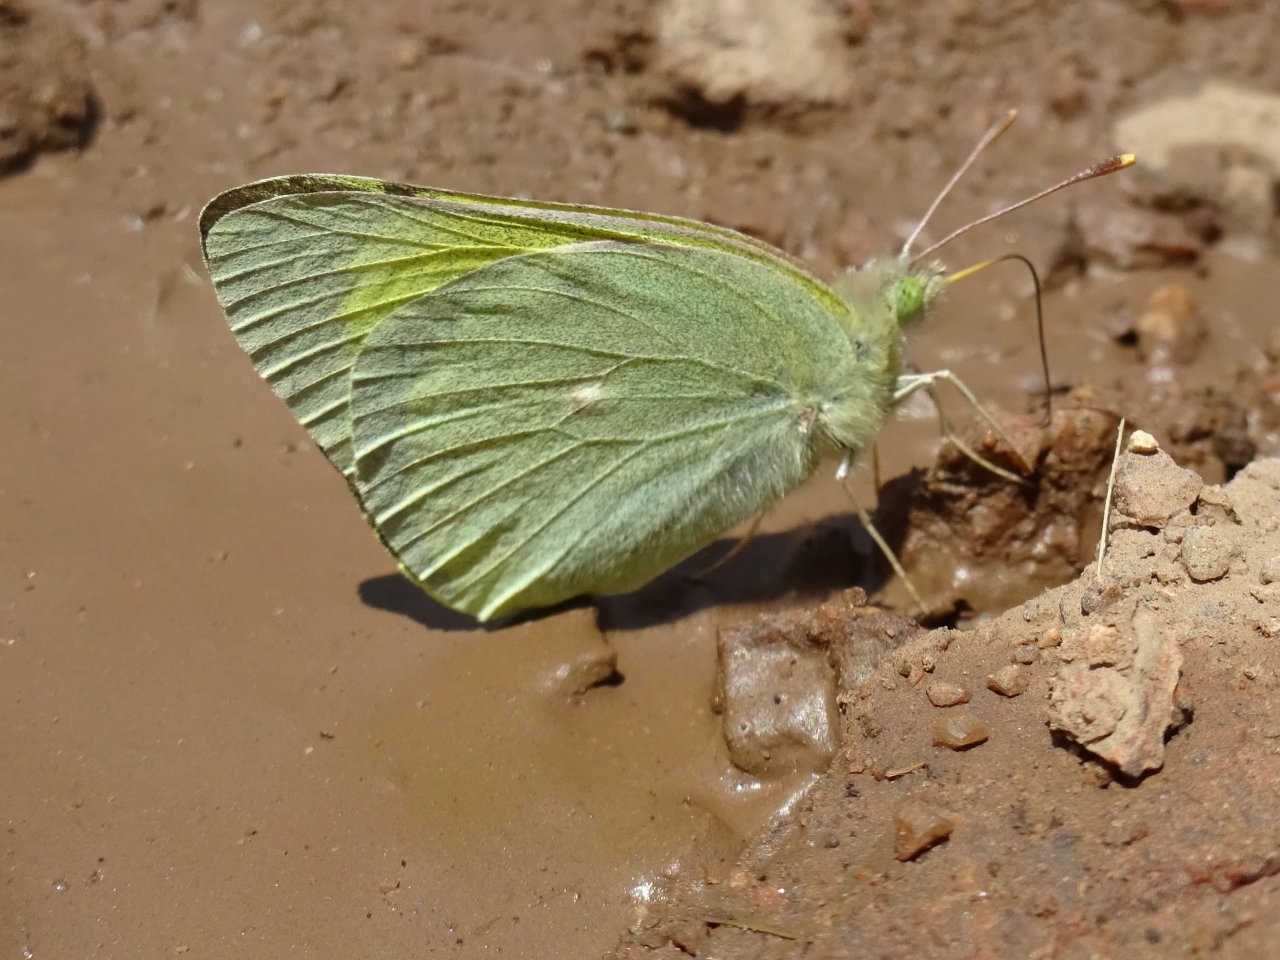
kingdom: Animalia
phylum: Arthropoda
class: Insecta
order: Lepidoptera
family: Pieridae
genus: Colias
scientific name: Colias alexandra
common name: Queen Alexandra's Sulphur
